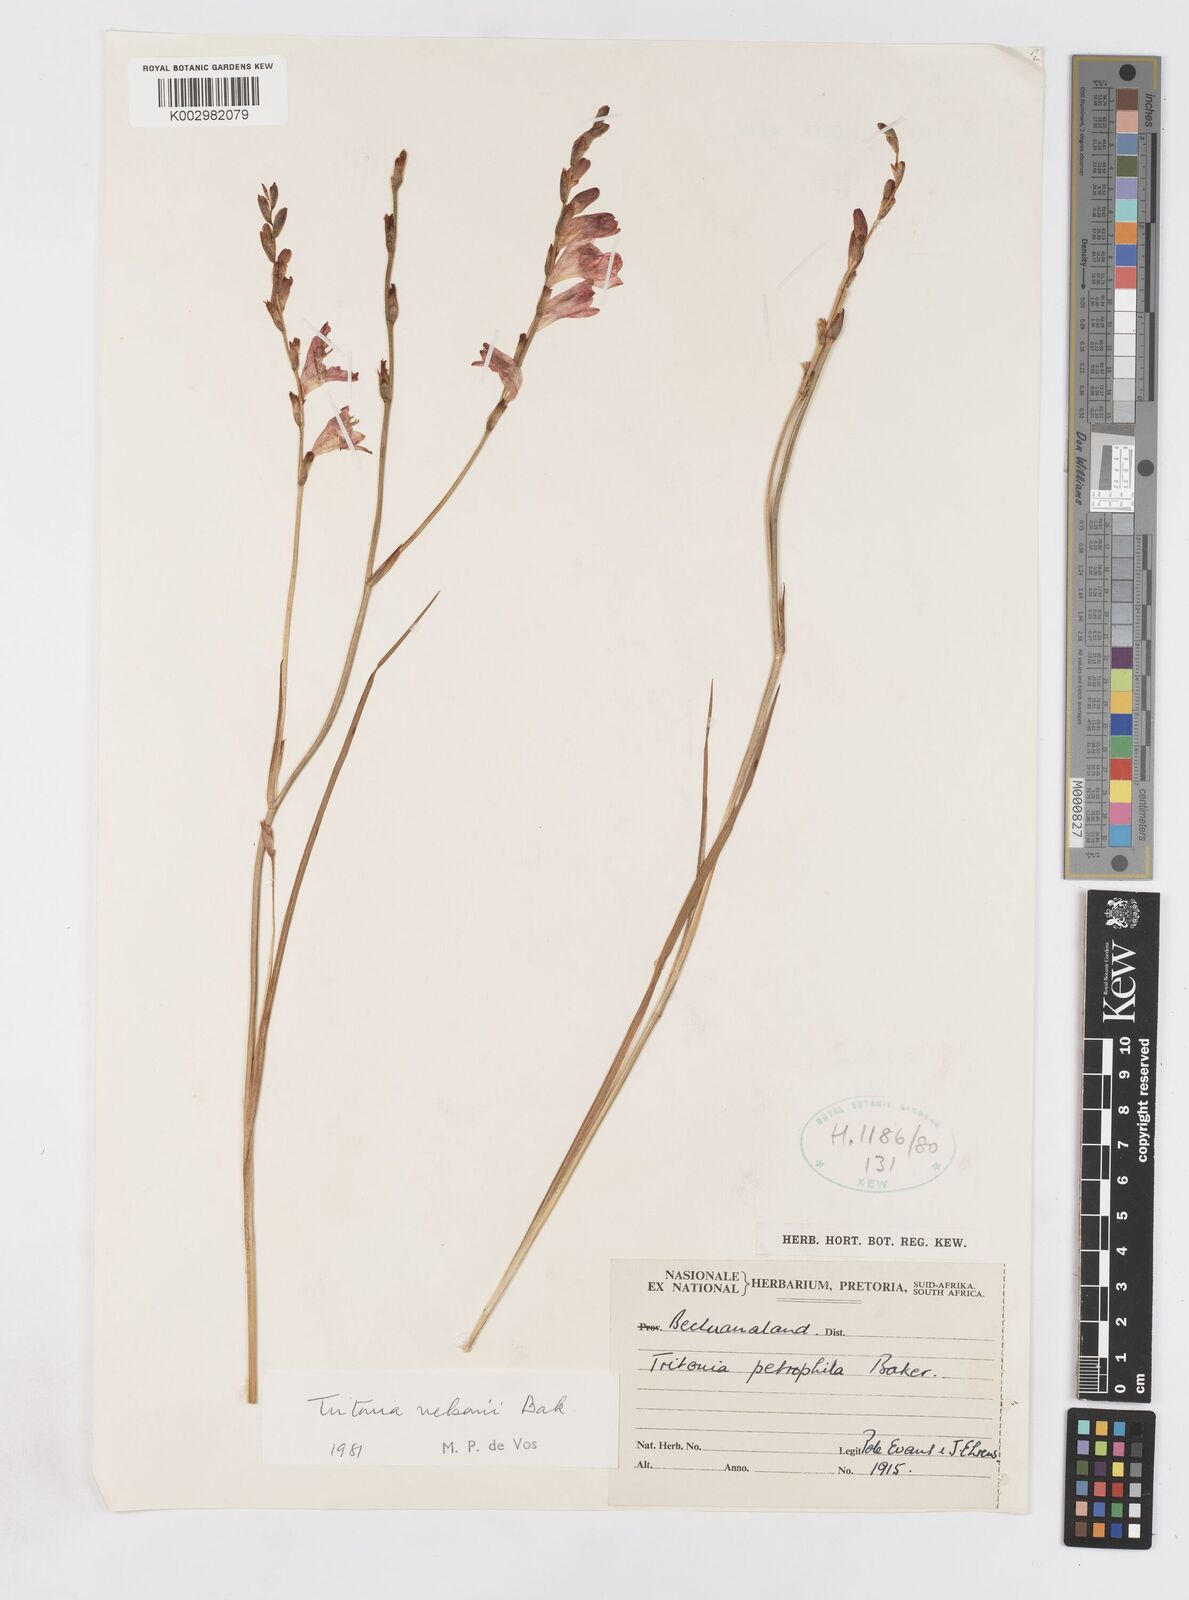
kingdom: Plantae
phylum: Tracheophyta
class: Liliopsida
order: Asparagales
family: Iridaceae
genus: Tritonia
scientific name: Tritonia nelsonii
